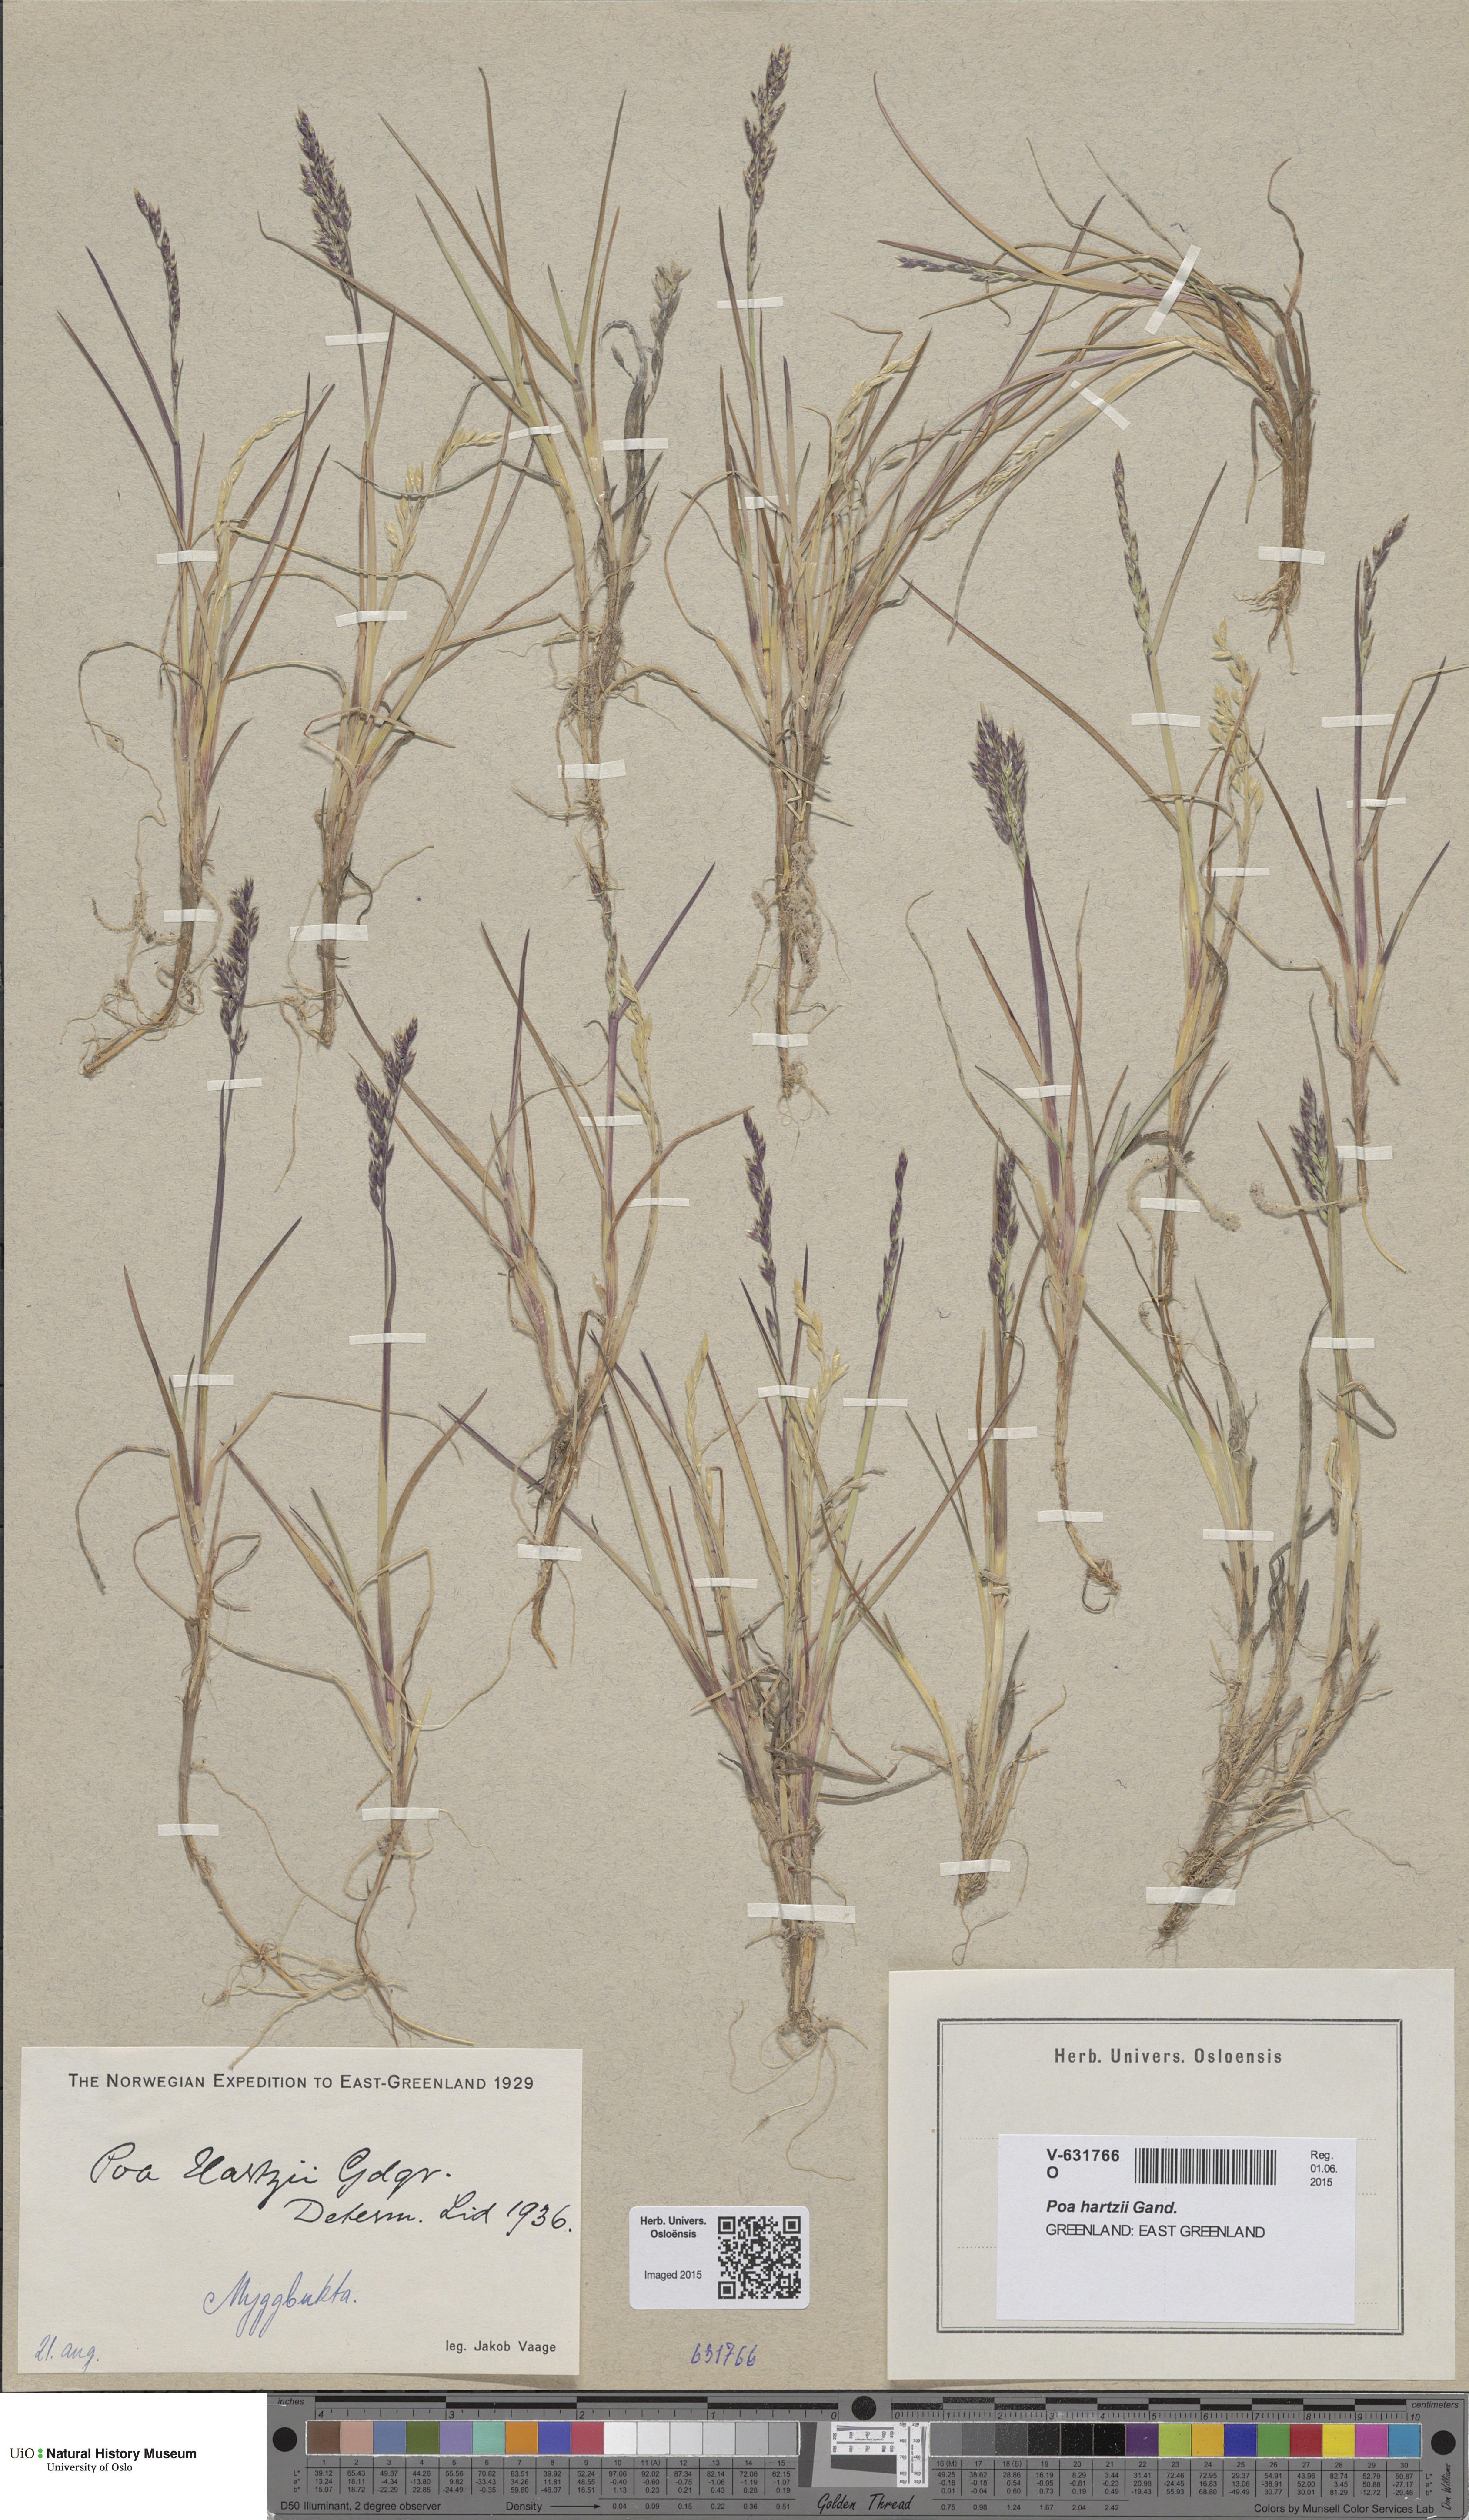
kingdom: Plantae
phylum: Tracheophyta
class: Liliopsida
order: Poales
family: Poaceae
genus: Poa
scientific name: Poa hartzii
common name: Hartz's bluegrass
